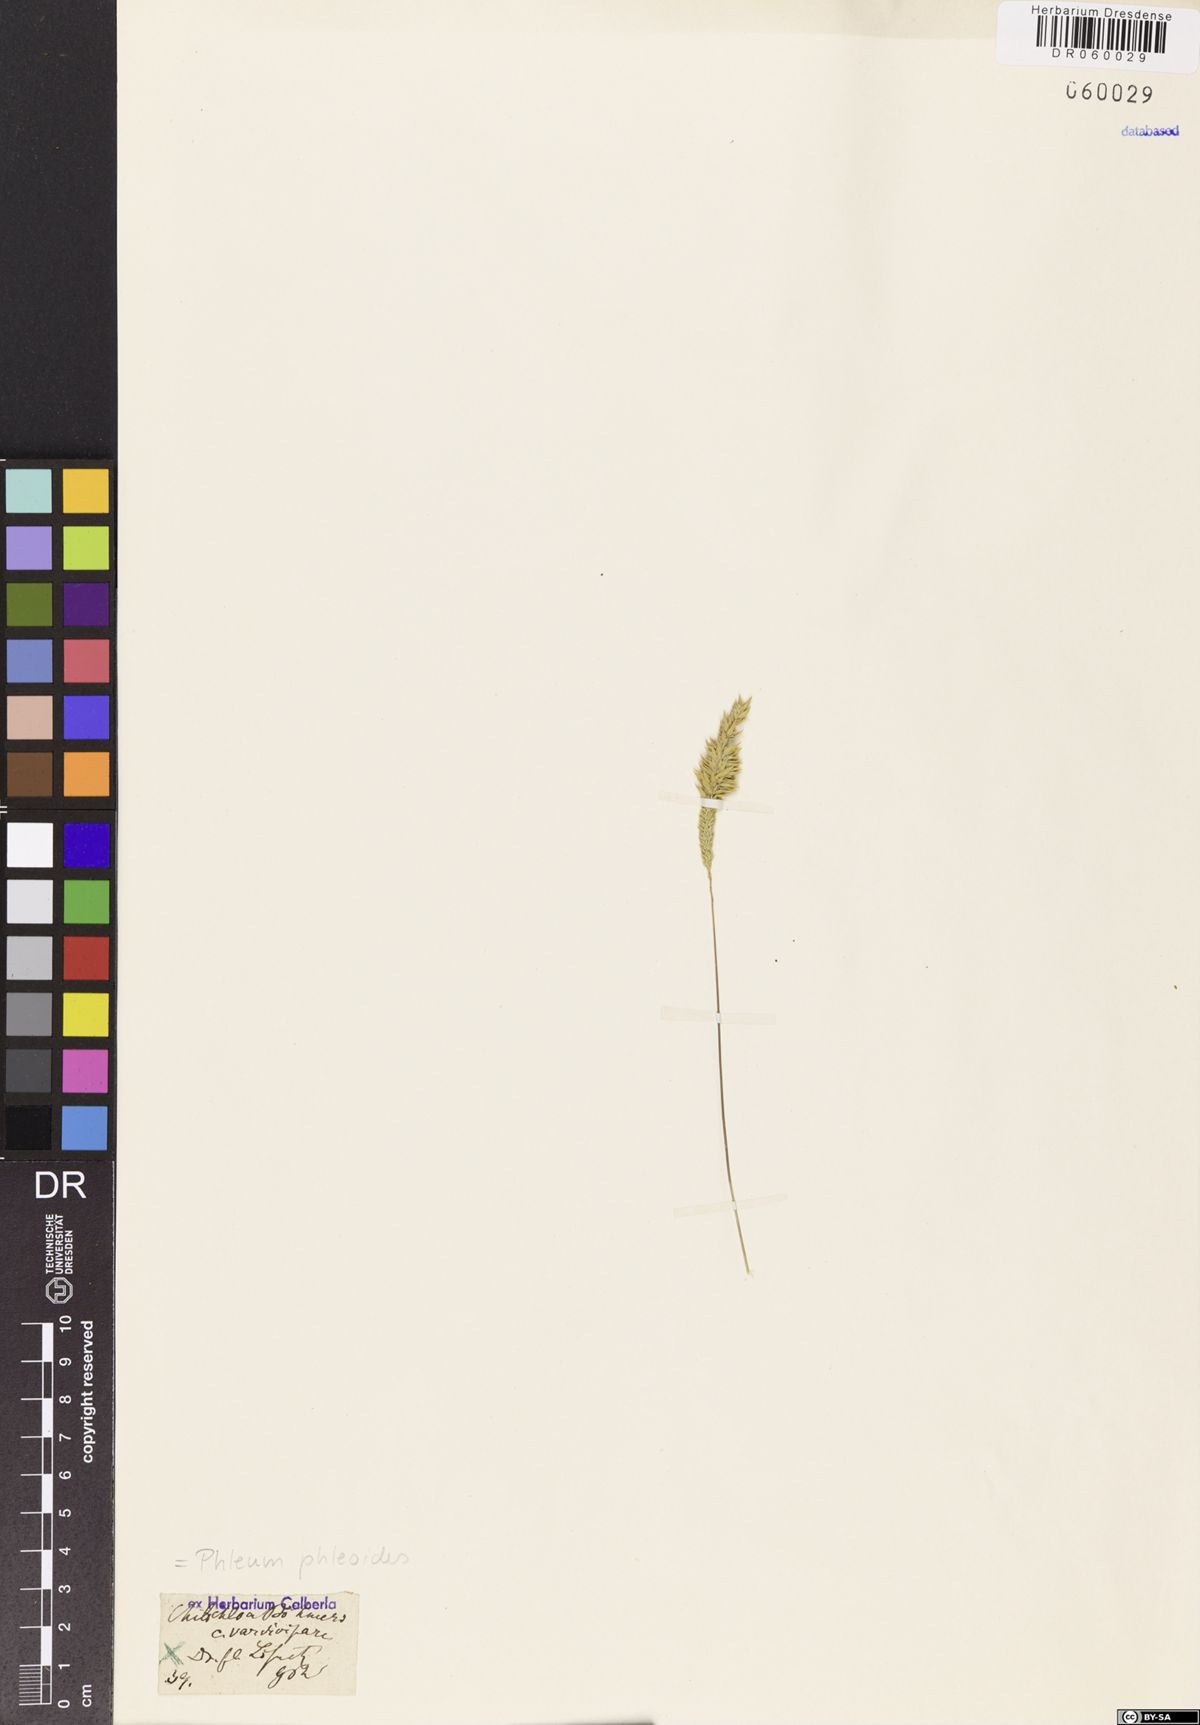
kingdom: Plantae
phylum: Tracheophyta
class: Liliopsida
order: Poales
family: Poaceae
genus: Phleum
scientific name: Phleum phleoides
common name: Purple-stem cat's-tail
